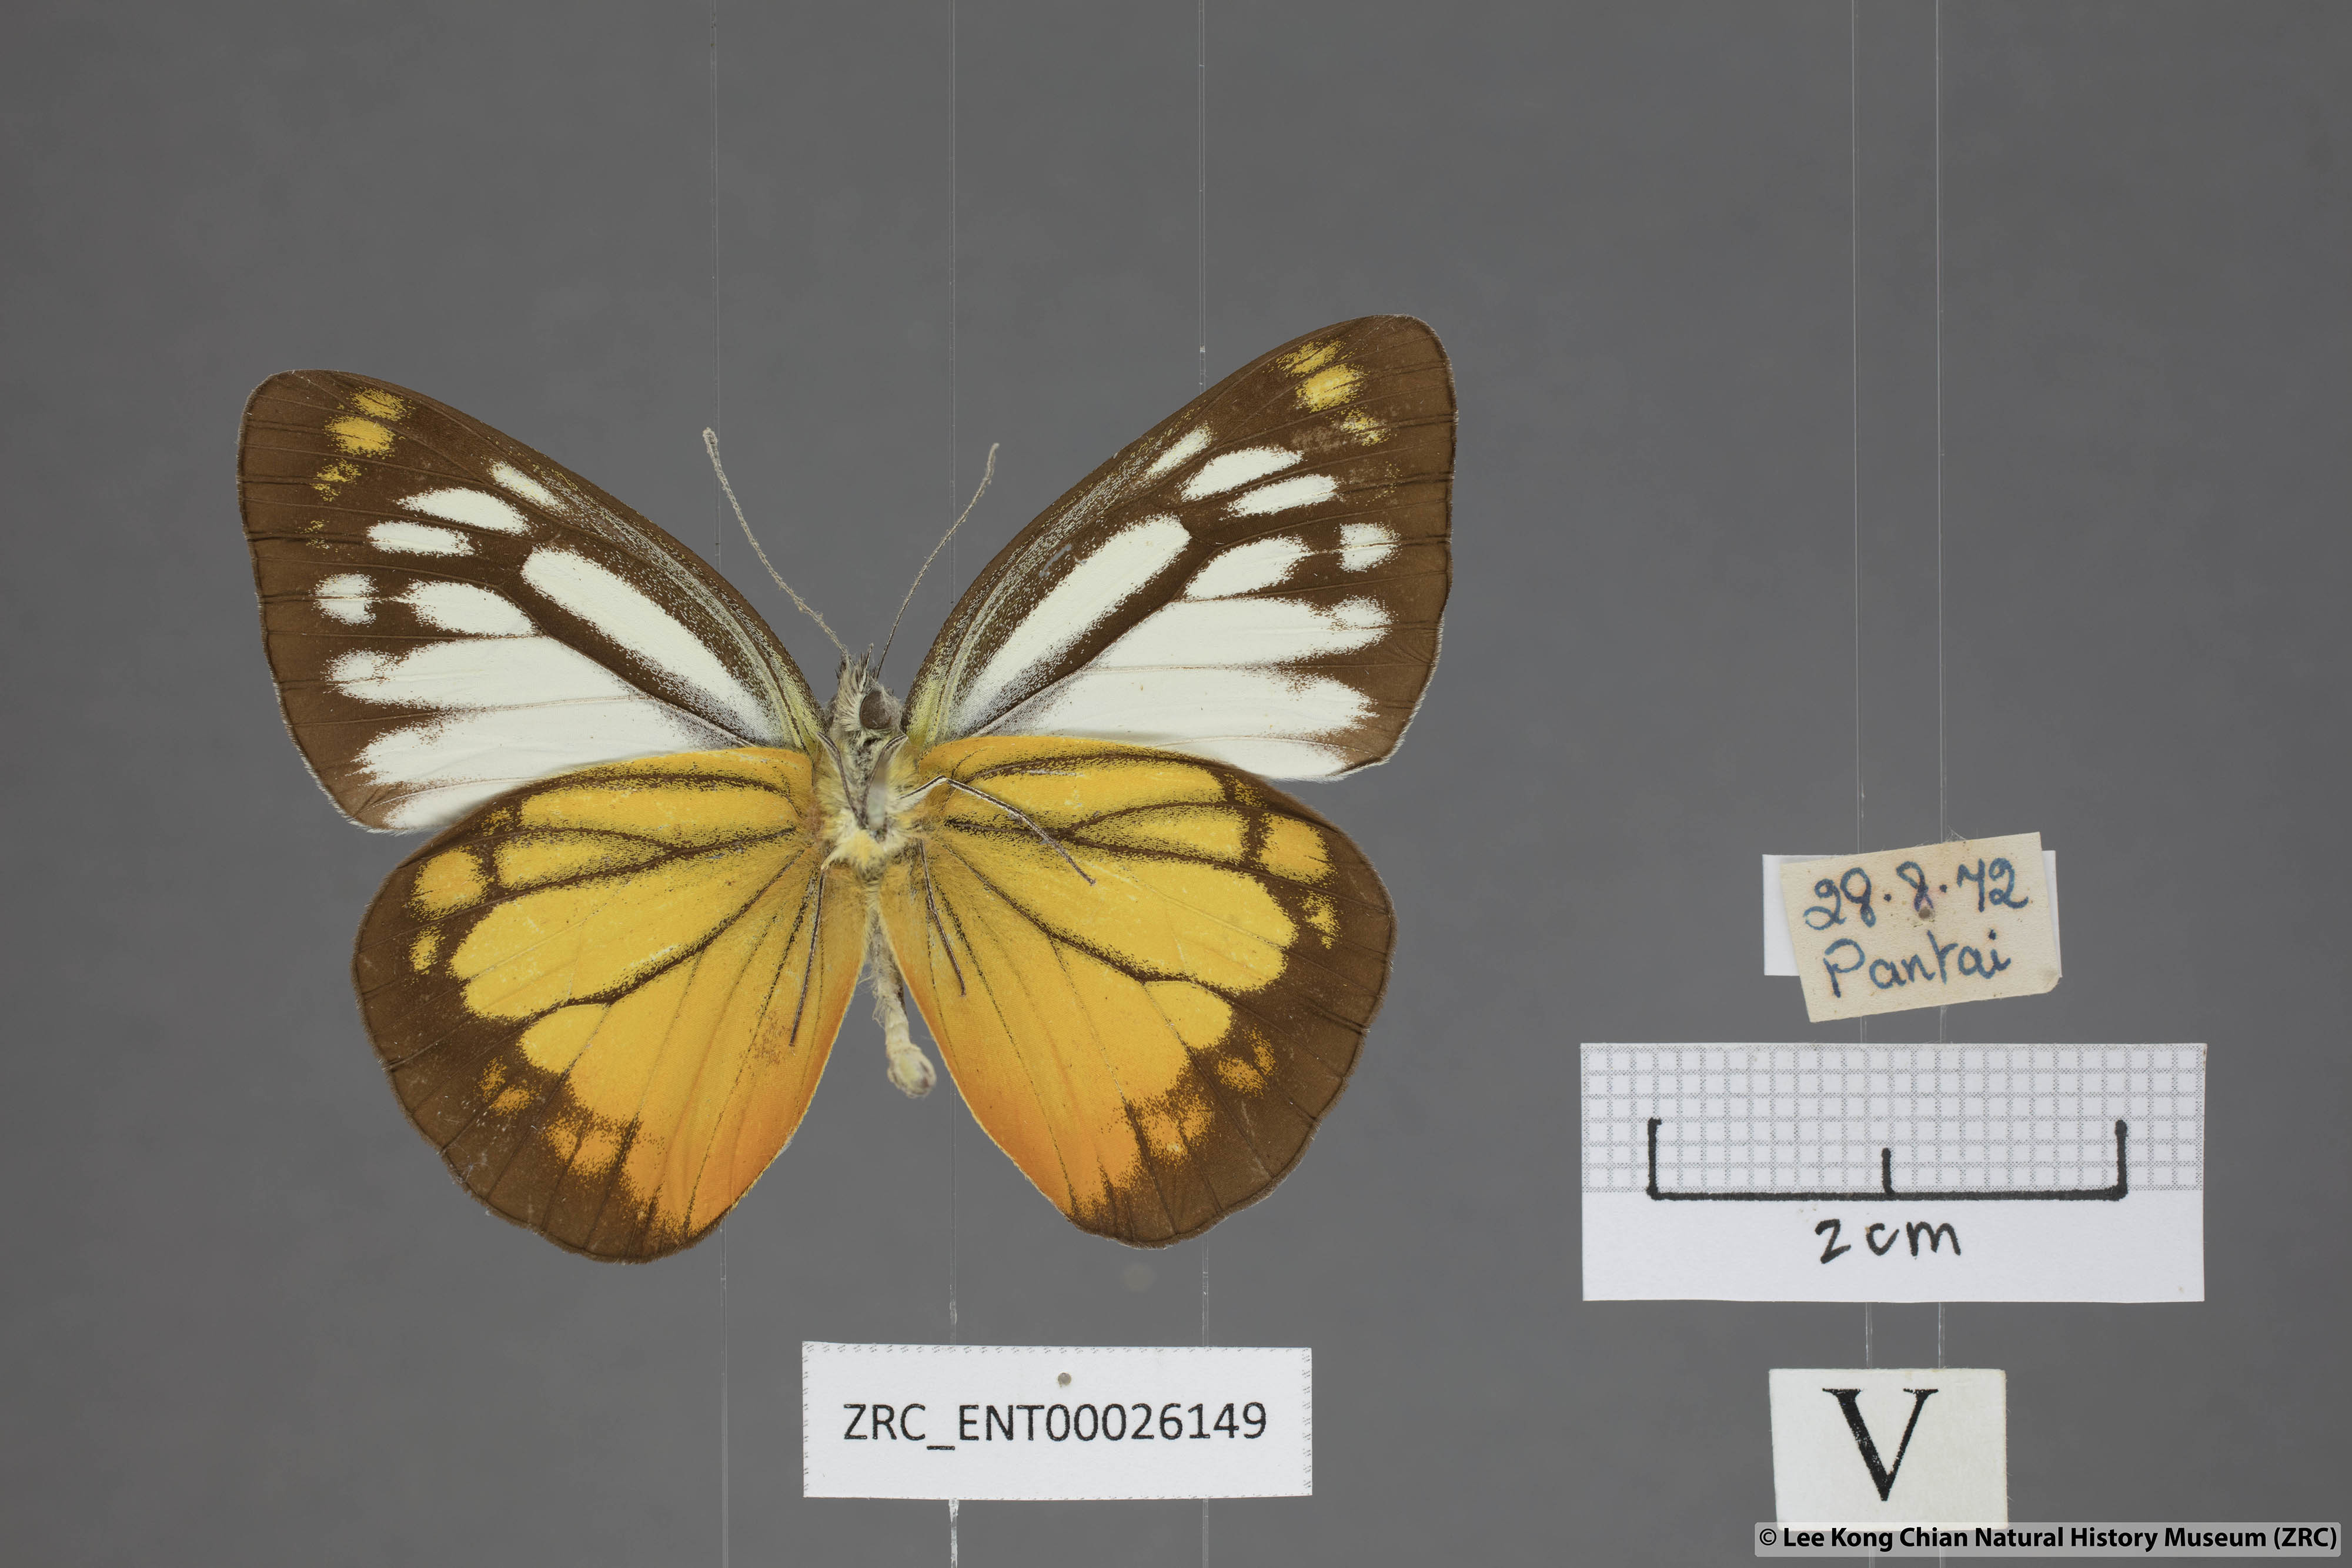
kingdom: Animalia
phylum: Arthropoda
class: Insecta
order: Lepidoptera
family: Pieridae
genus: Cepora
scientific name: Cepora julia
